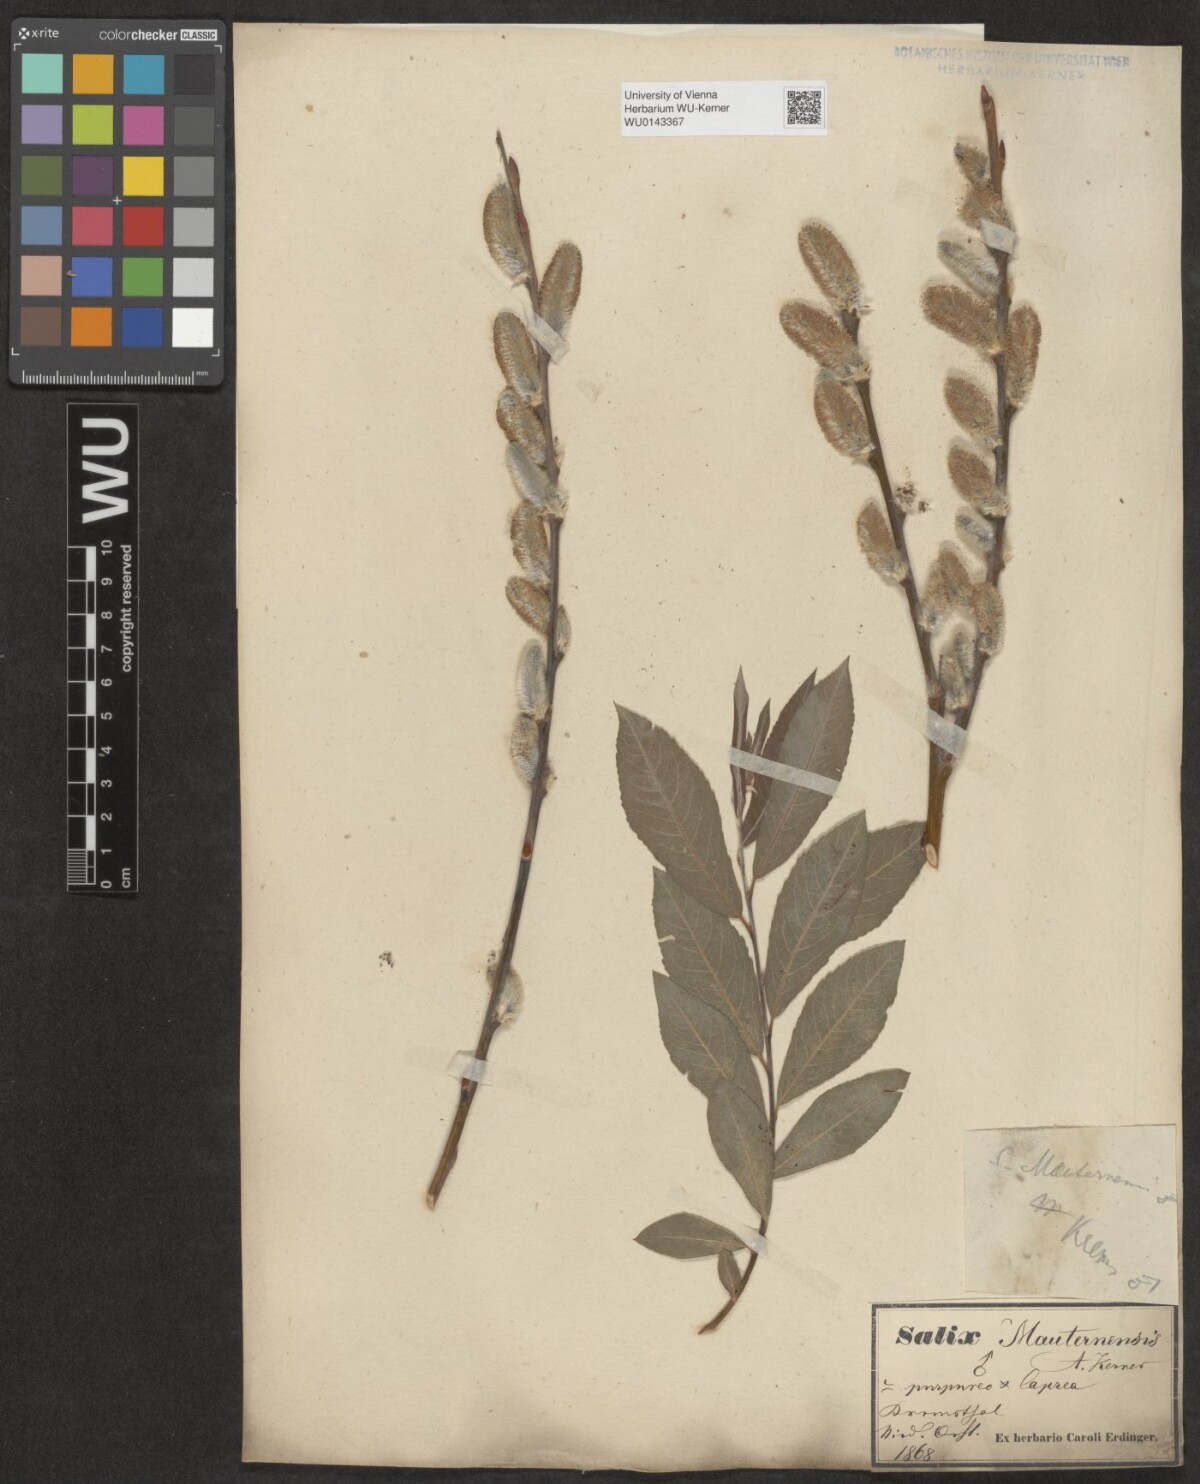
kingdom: Plantae
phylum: Tracheophyta
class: Magnoliopsida
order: Malpighiales
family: Salicaceae
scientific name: Salicaceae
